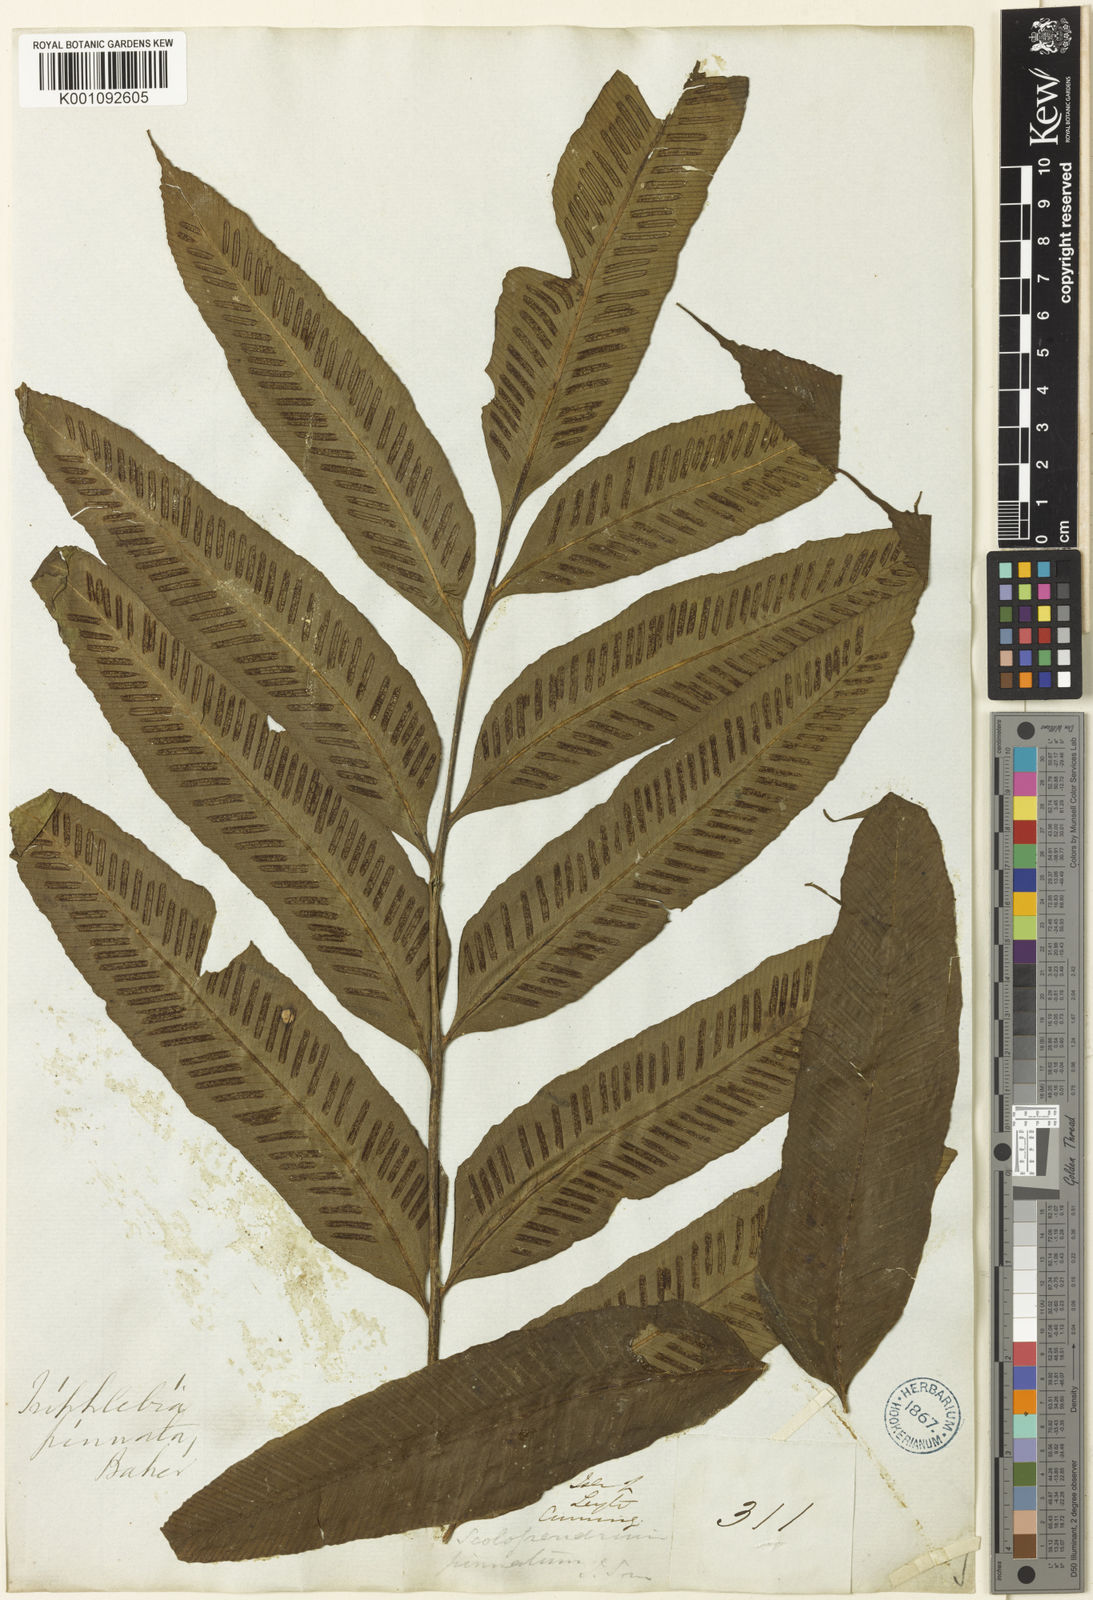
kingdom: Plantae
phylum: Tracheophyta
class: Polypodiopsida
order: Polypodiales
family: Aspleniaceae
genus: Asplenium
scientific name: Asplenium
